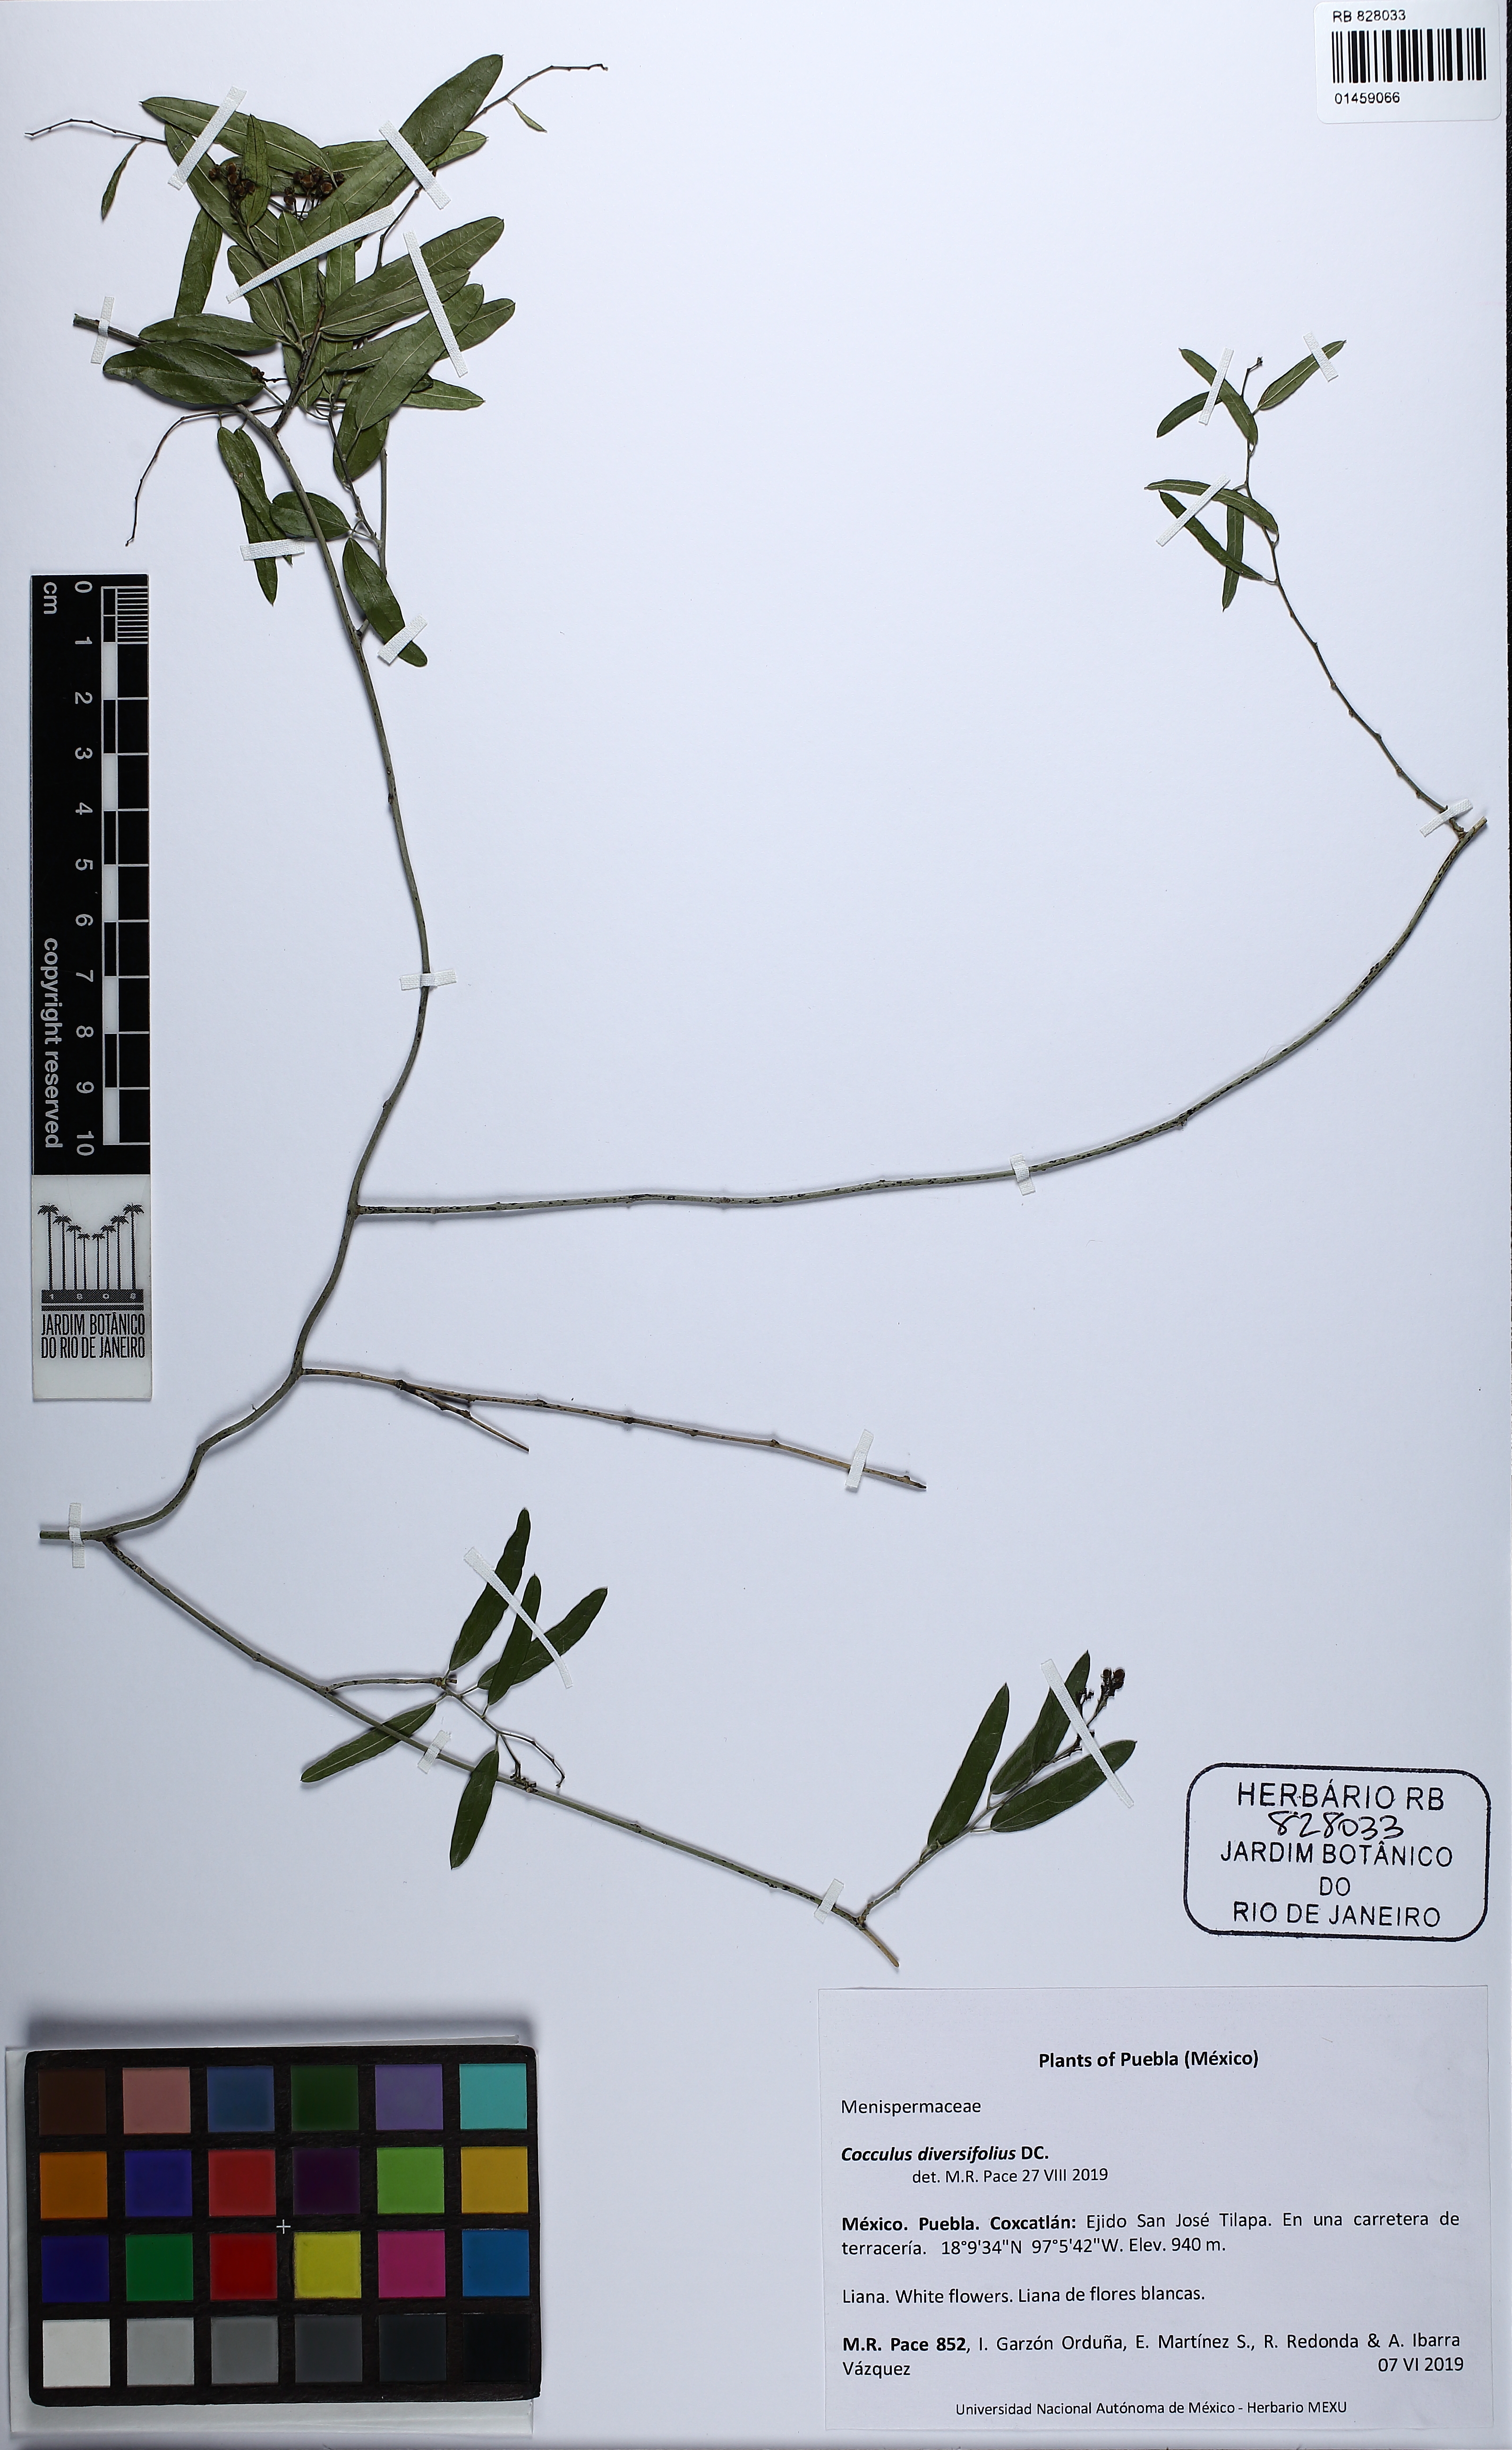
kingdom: Plantae
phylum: Tracheophyta
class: Magnoliopsida
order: Ranunculales
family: Menispermaceae
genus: Cocculus
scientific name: Cocculus diversifolius
